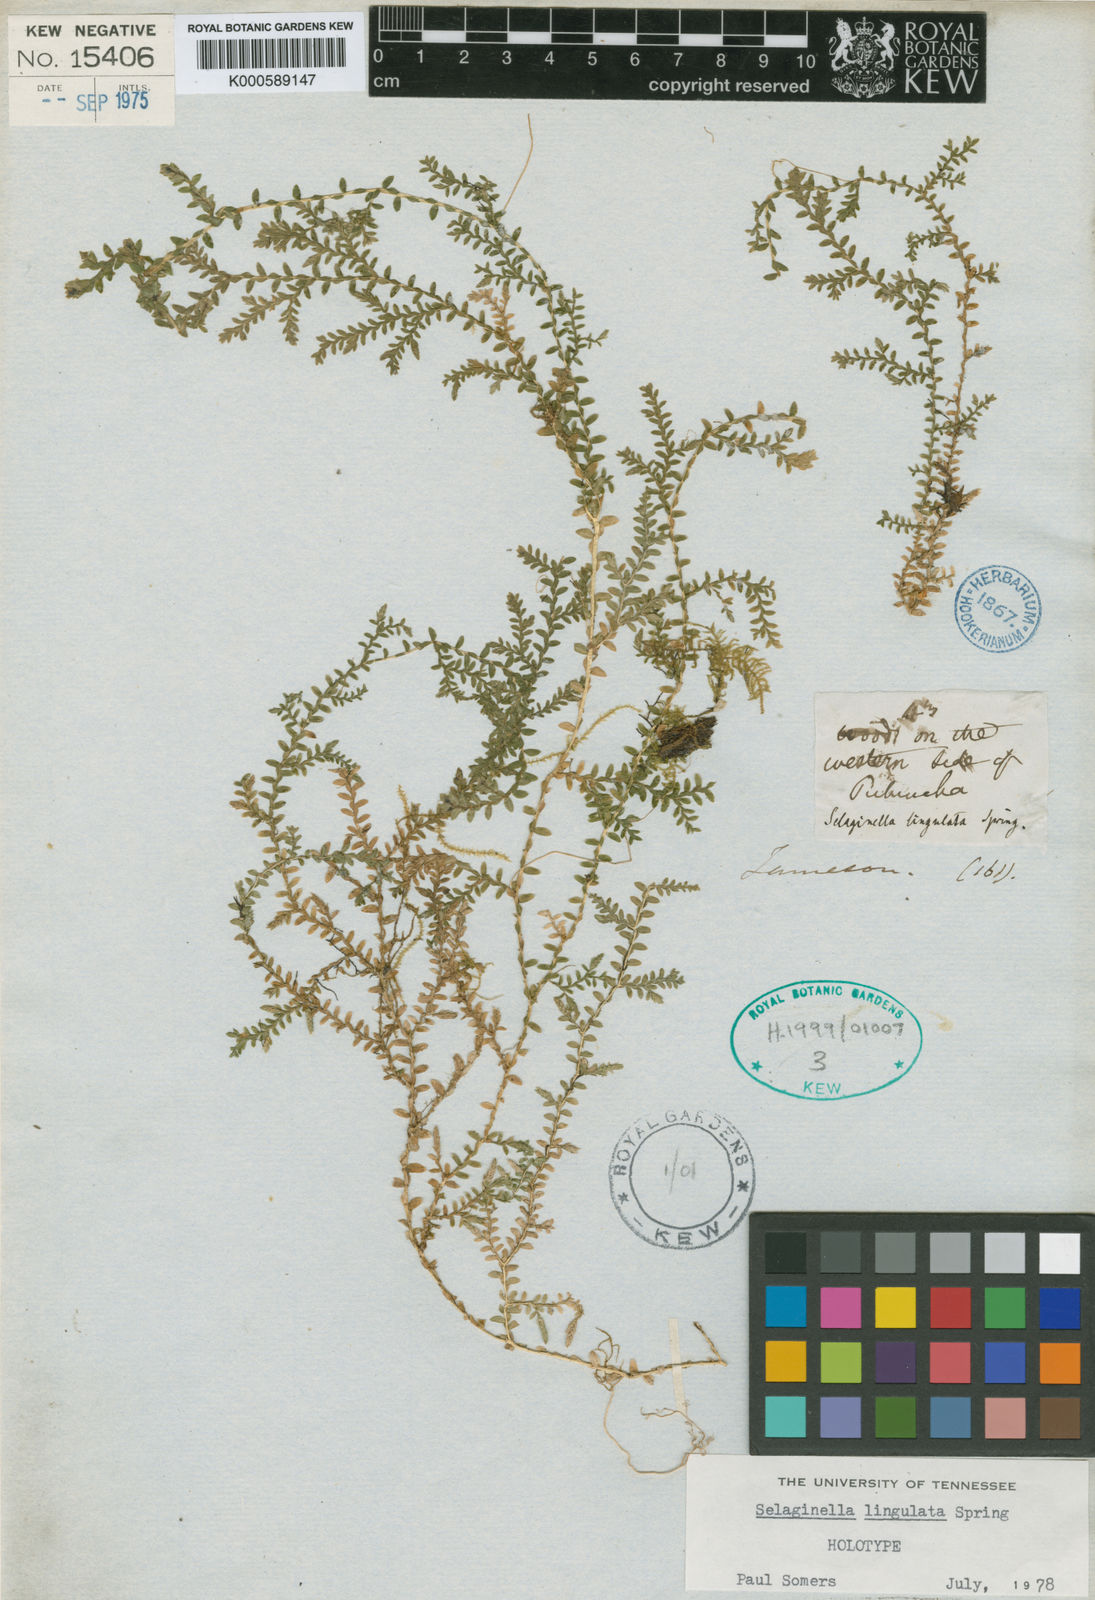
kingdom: Plantae
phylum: Tracheophyta
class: Lycopodiopsida
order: Selaginellales
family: Selaginellaceae
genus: Selaginella
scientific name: Selaginella lingulata
